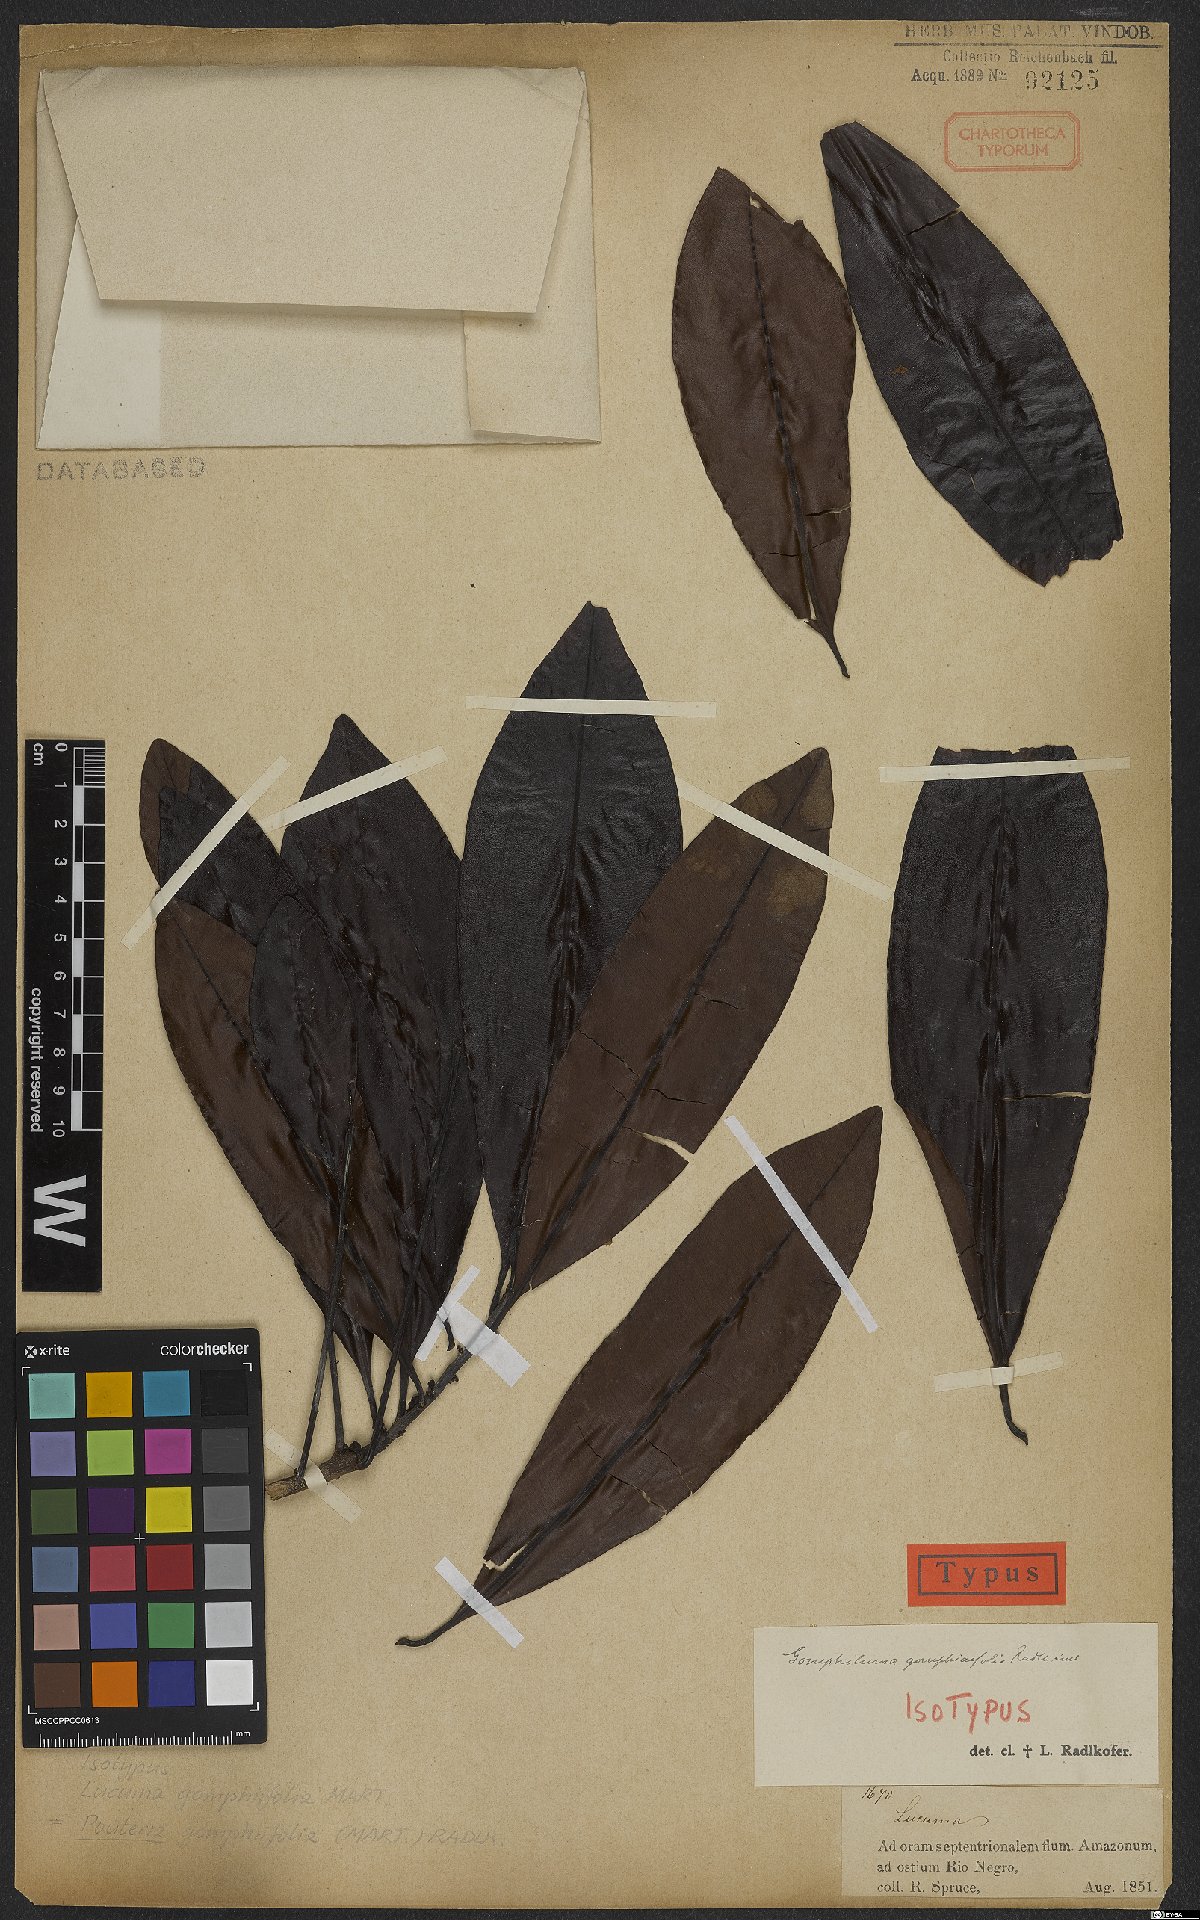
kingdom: Plantae
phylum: Tracheophyta
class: Magnoliopsida
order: Ericales
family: Sapotaceae
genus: Pouteria
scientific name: Pouteria gomphiifolia
